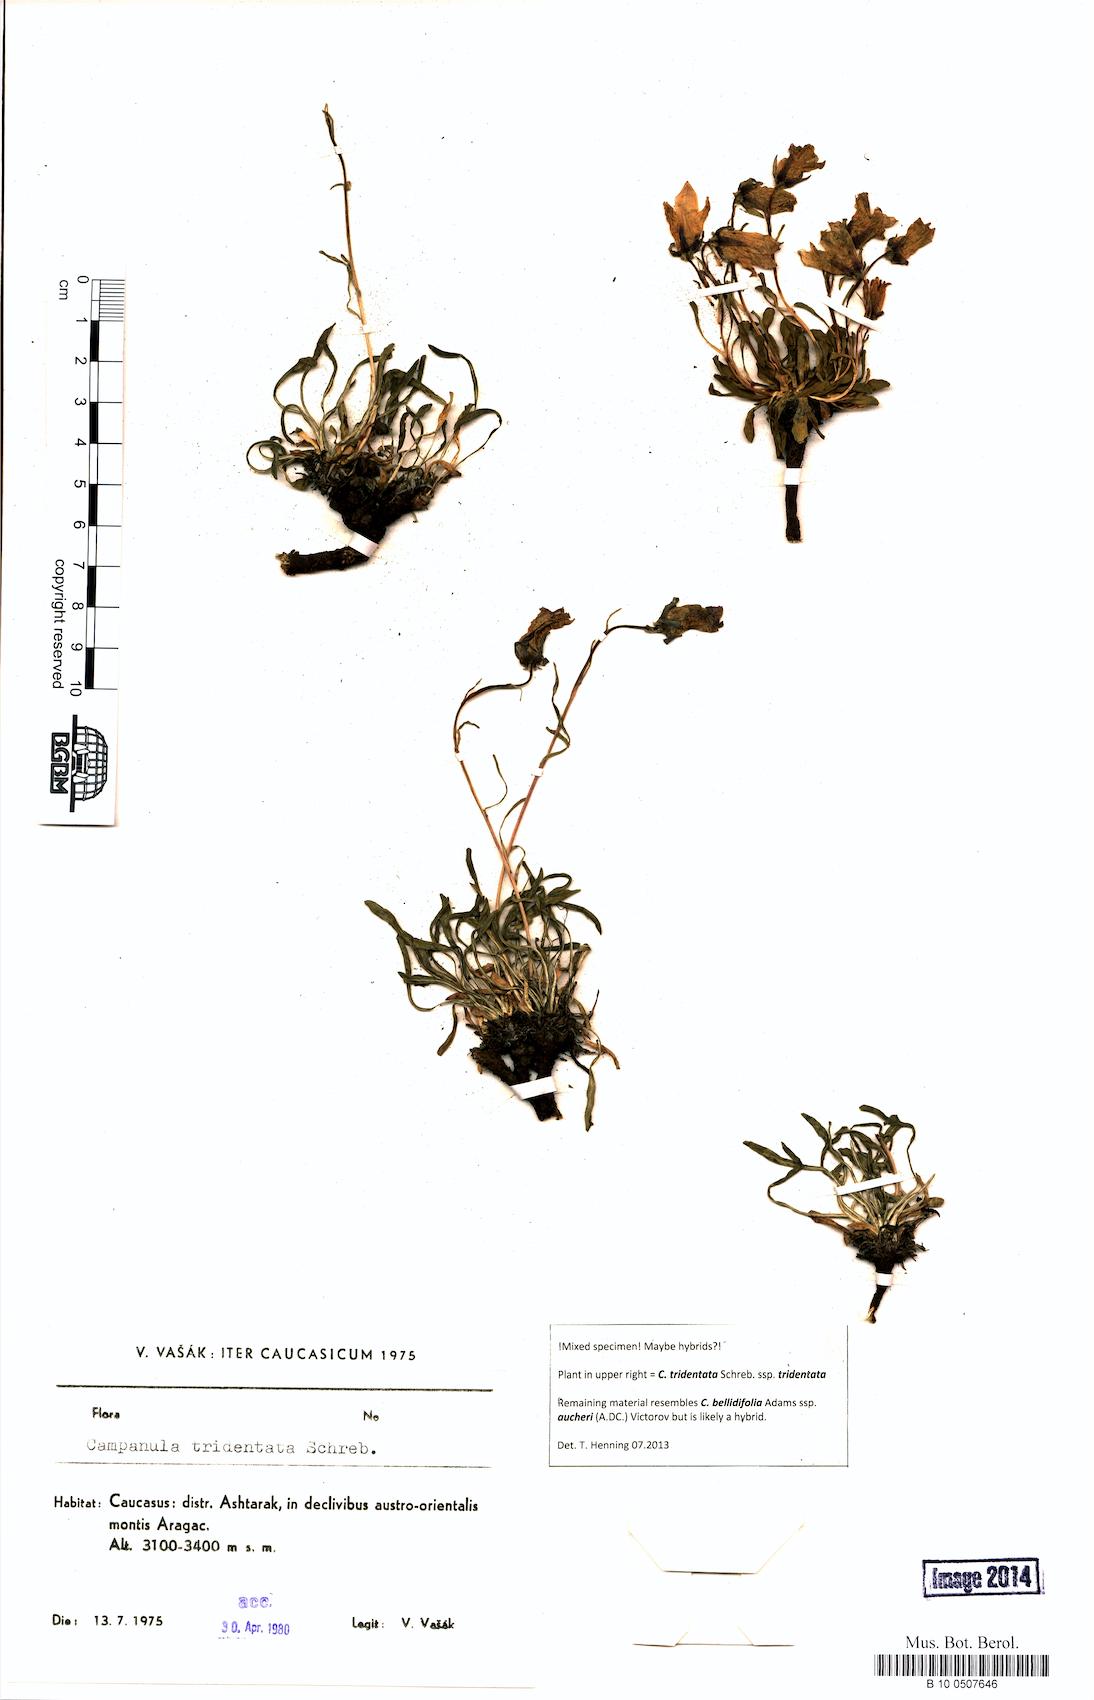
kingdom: Plantae
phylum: Tracheophyta
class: Magnoliopsida
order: Asterales
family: Campanulaceae
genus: Campanula
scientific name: Campanula tridentata
